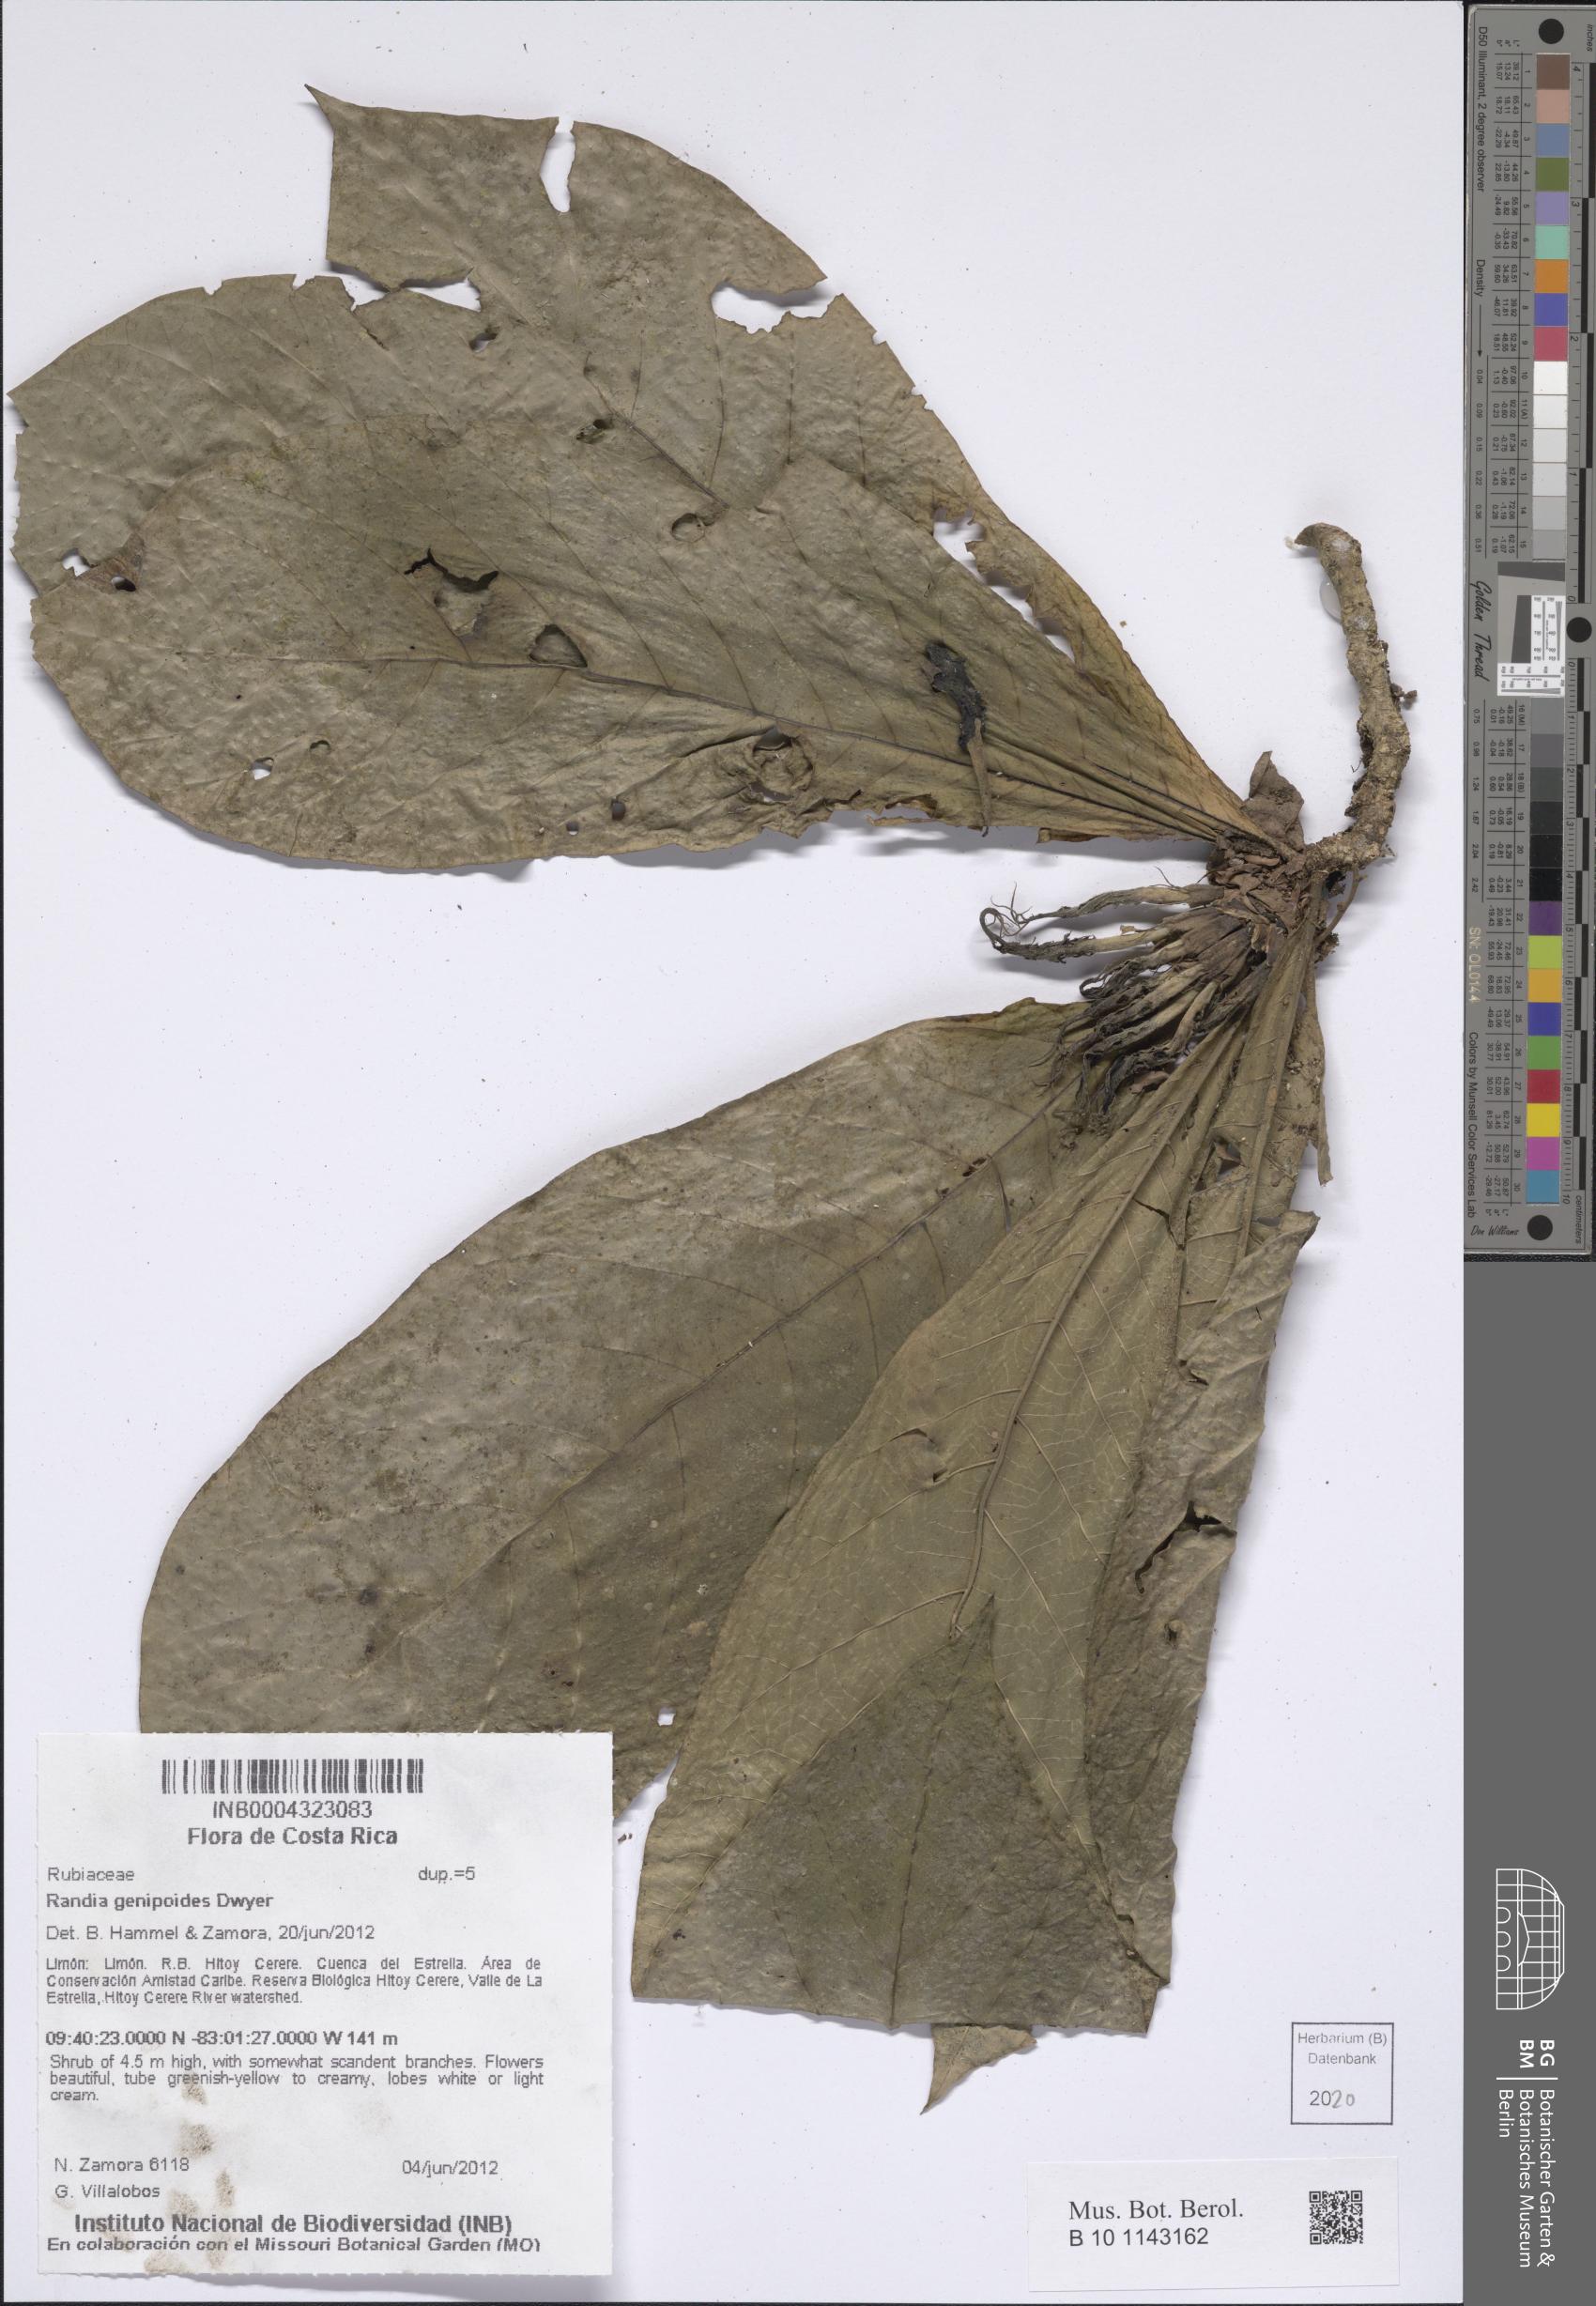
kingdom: Plantae
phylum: Tracheophyta
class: Magnoliopsida
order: Gentianales
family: Rubiaceae
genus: Randia
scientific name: Randia genipoides
